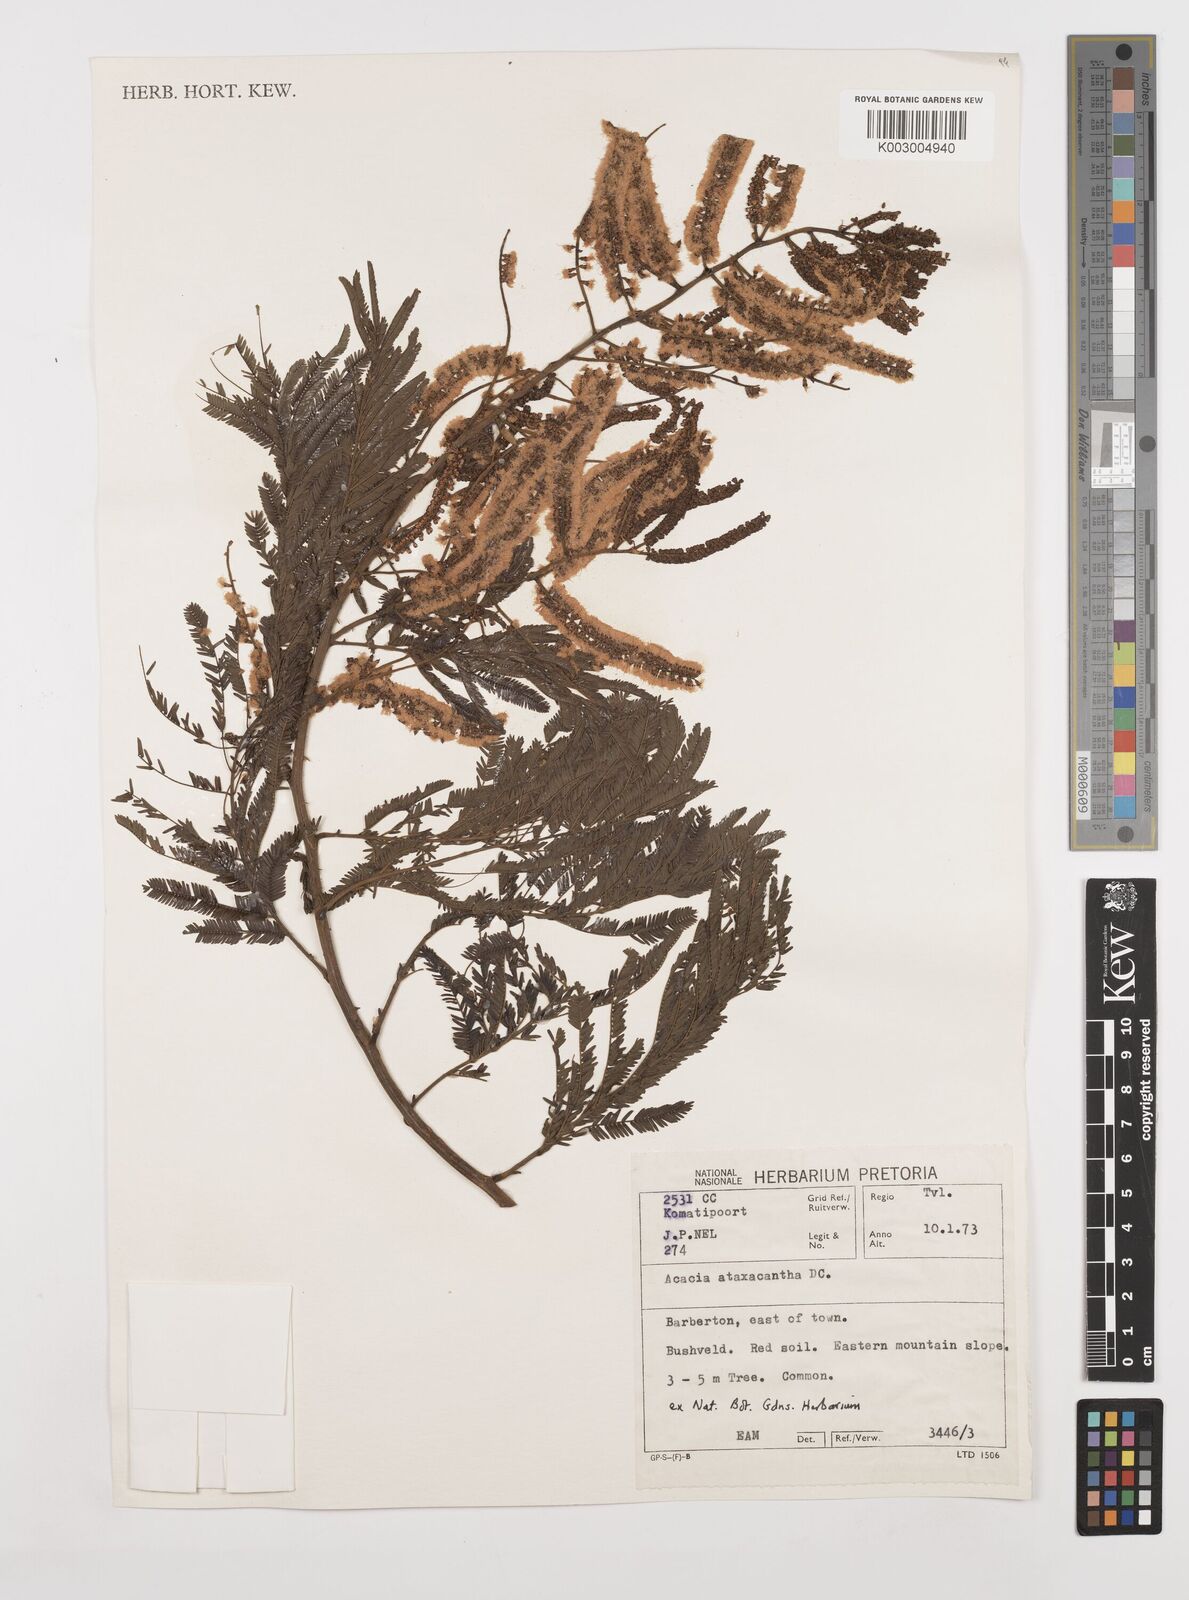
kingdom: Plantae
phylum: Tracheophyta
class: Magnoliopsida
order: Fabales
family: Fabaceae
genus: Senegalia
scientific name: Senegalia ataxacantha
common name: Flame acacia
